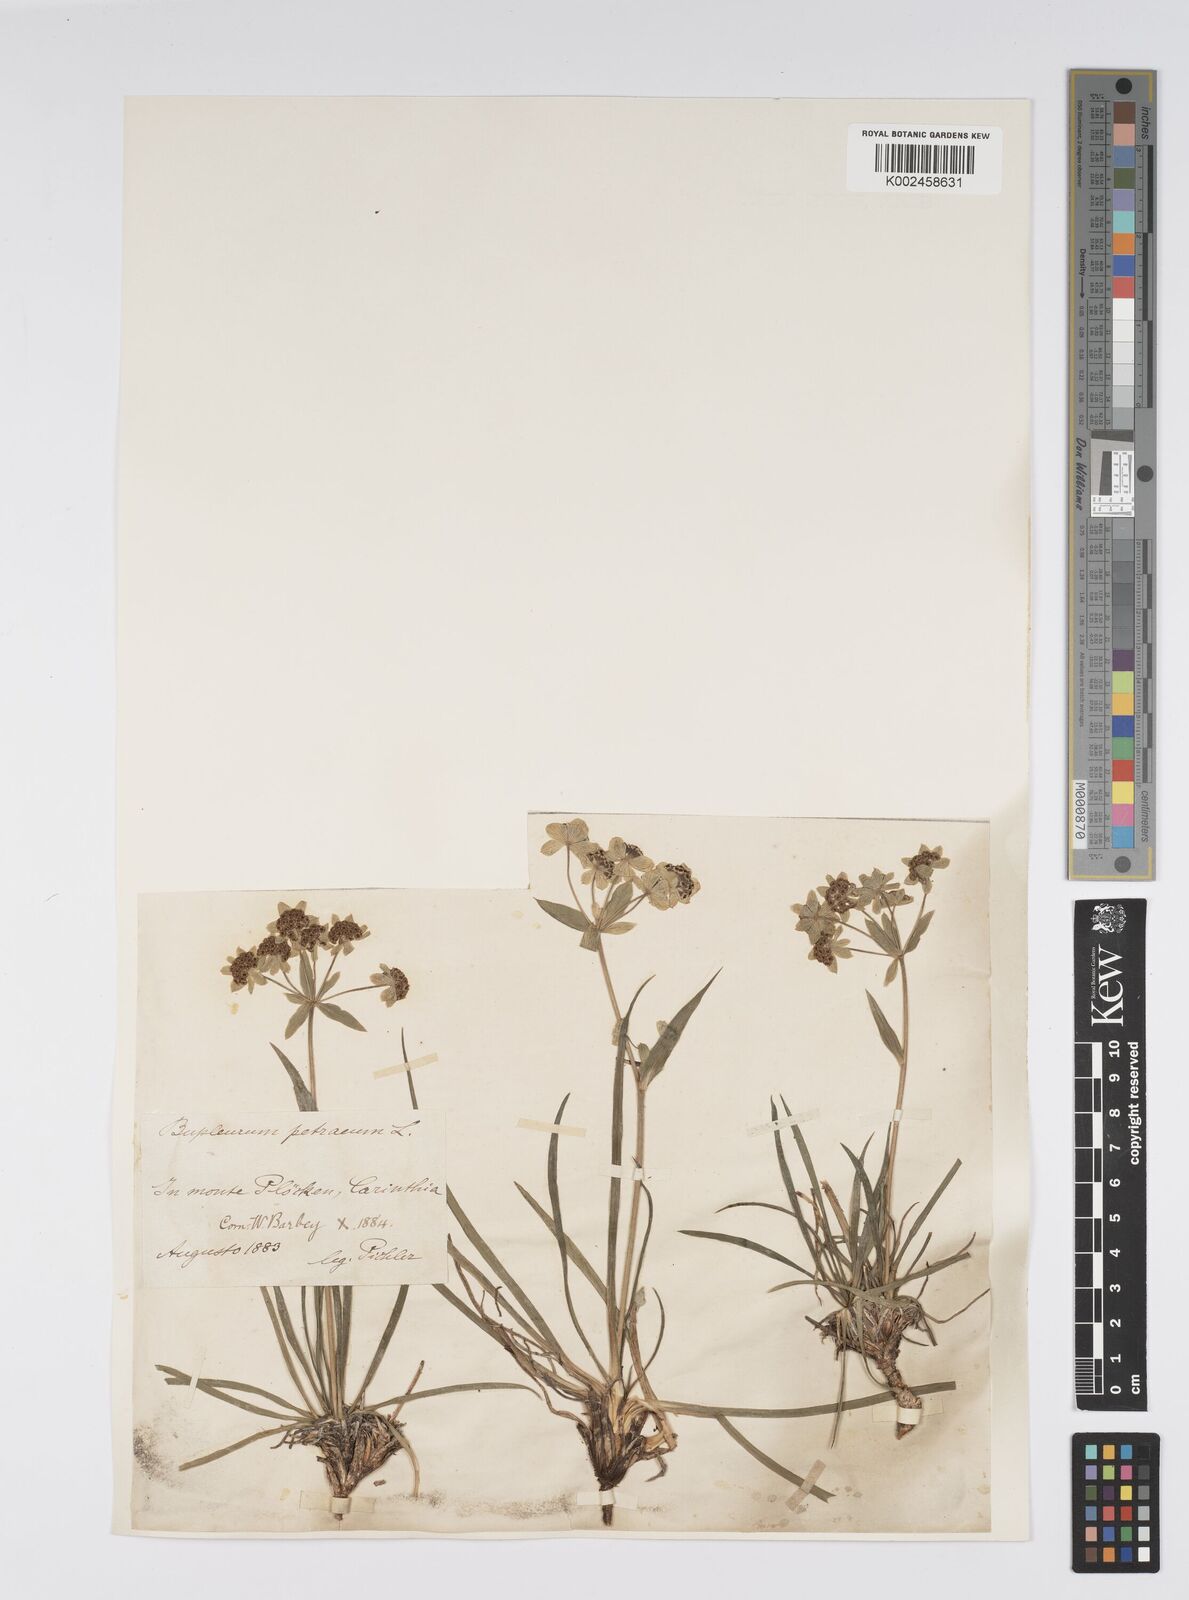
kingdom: Plantae
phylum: Tracheophyta
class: Magnoliopsida
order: Apiales
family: Apiaceae
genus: Bupleurum
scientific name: Bupleurum petraeum
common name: Rock hare's-ear
